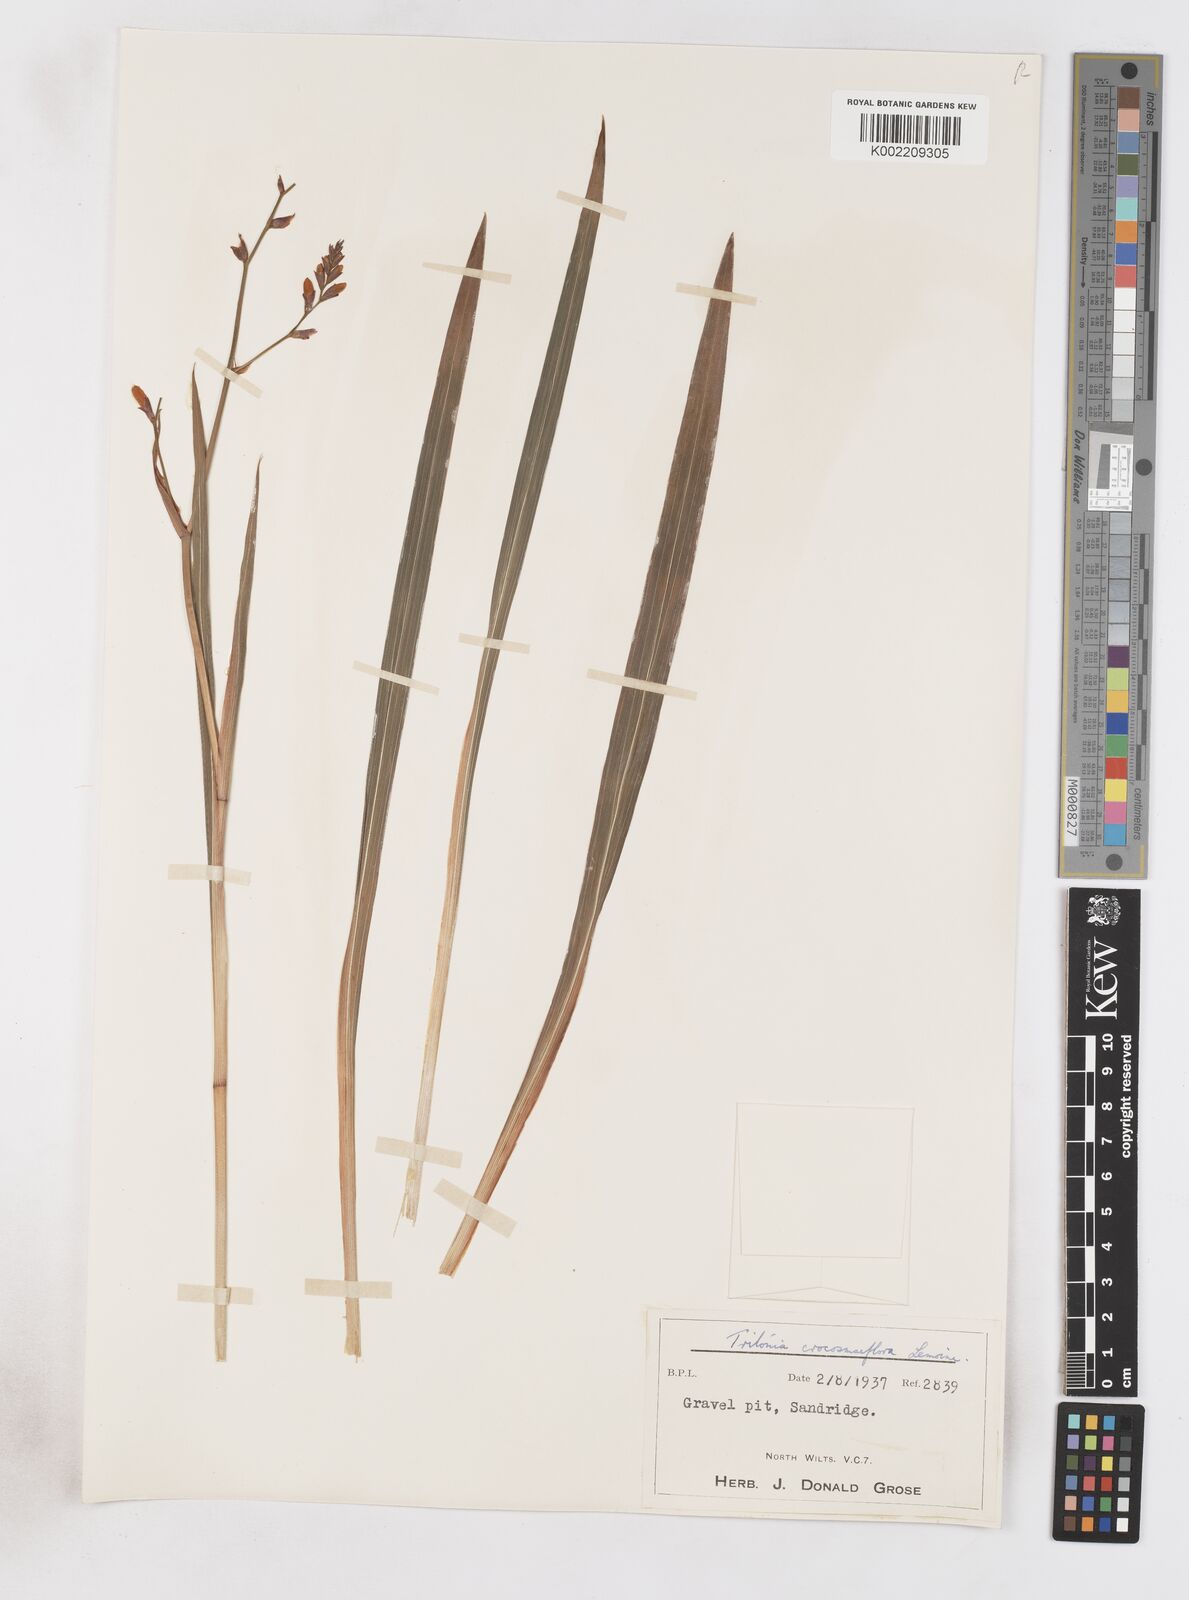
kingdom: Plantae
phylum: Tracheophyta
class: Liliopsida
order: Asparagales
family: Iridaceae
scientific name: Iridaceae
